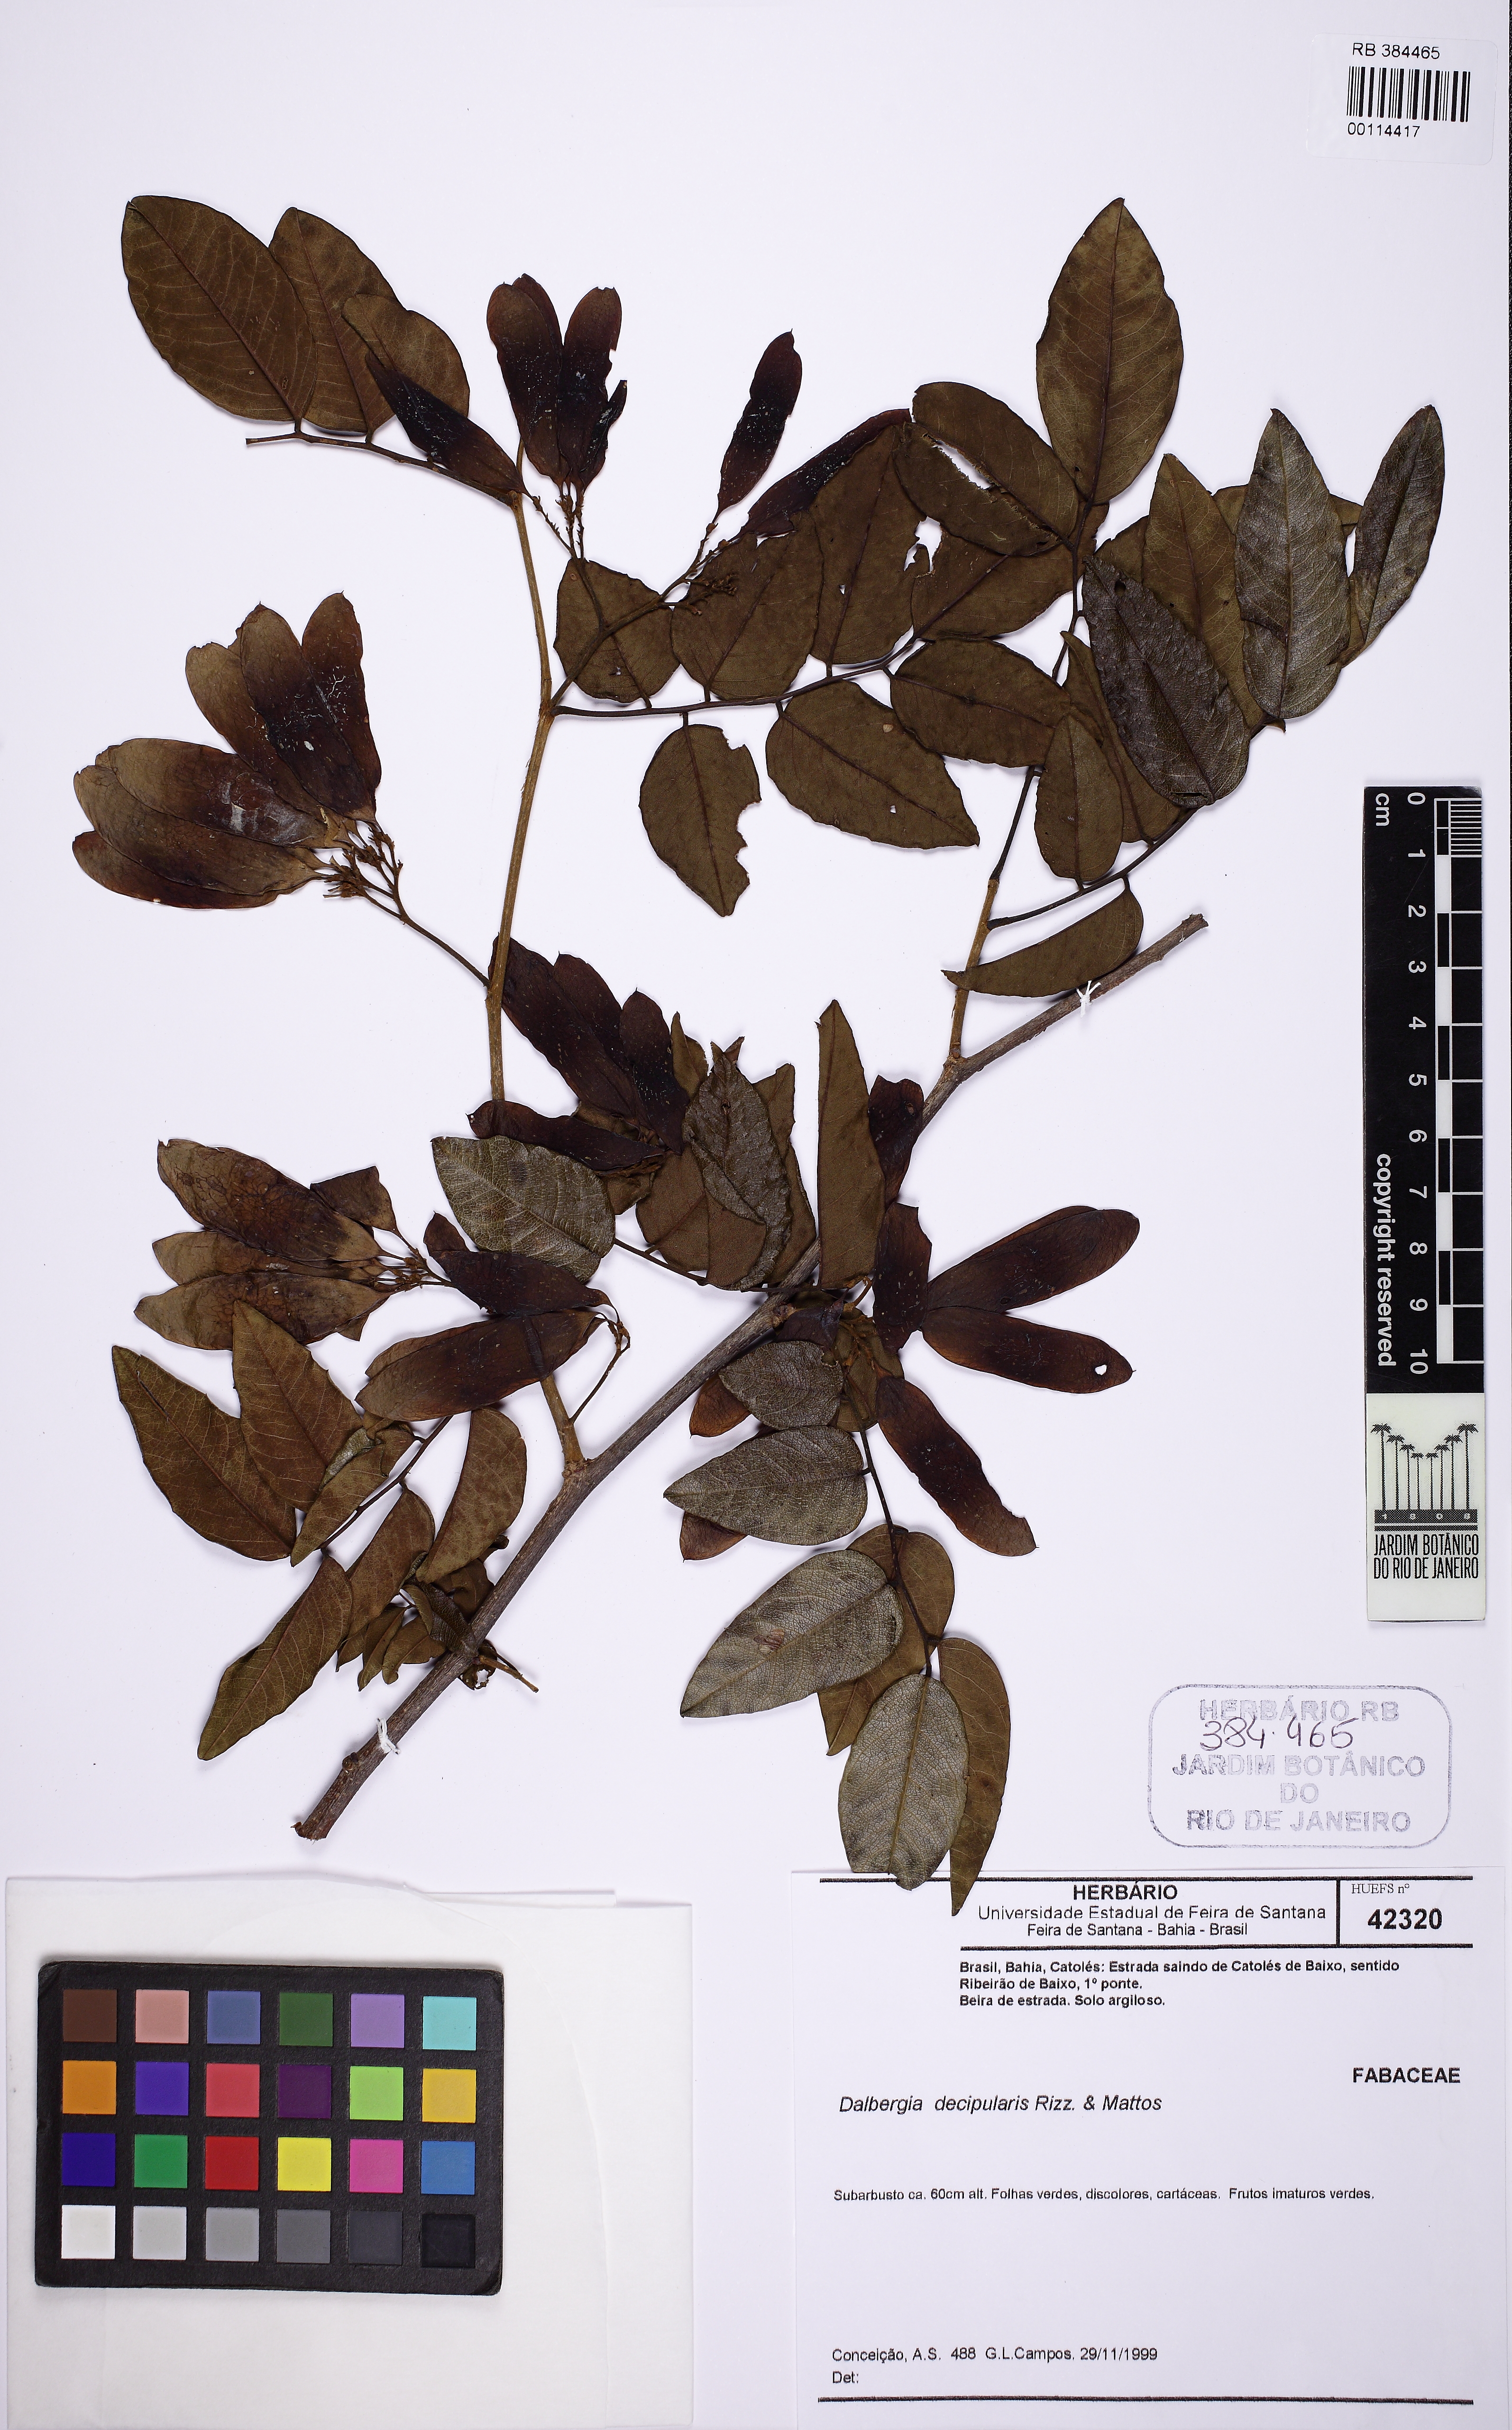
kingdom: Plantae
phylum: Tracheophyta
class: Magnoliopsida
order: Fabales
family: Fabaceae
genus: Dalbergia
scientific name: Dalbergia decipularis
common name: Brazilian tulipwood
